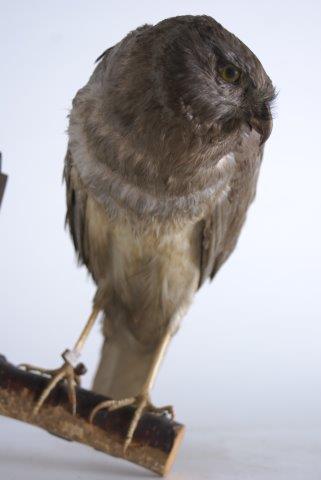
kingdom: Animalia
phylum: Chordata
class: Aves
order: Accipitriformes
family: Accipitridae
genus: Circus
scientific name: Circus cyaneus
